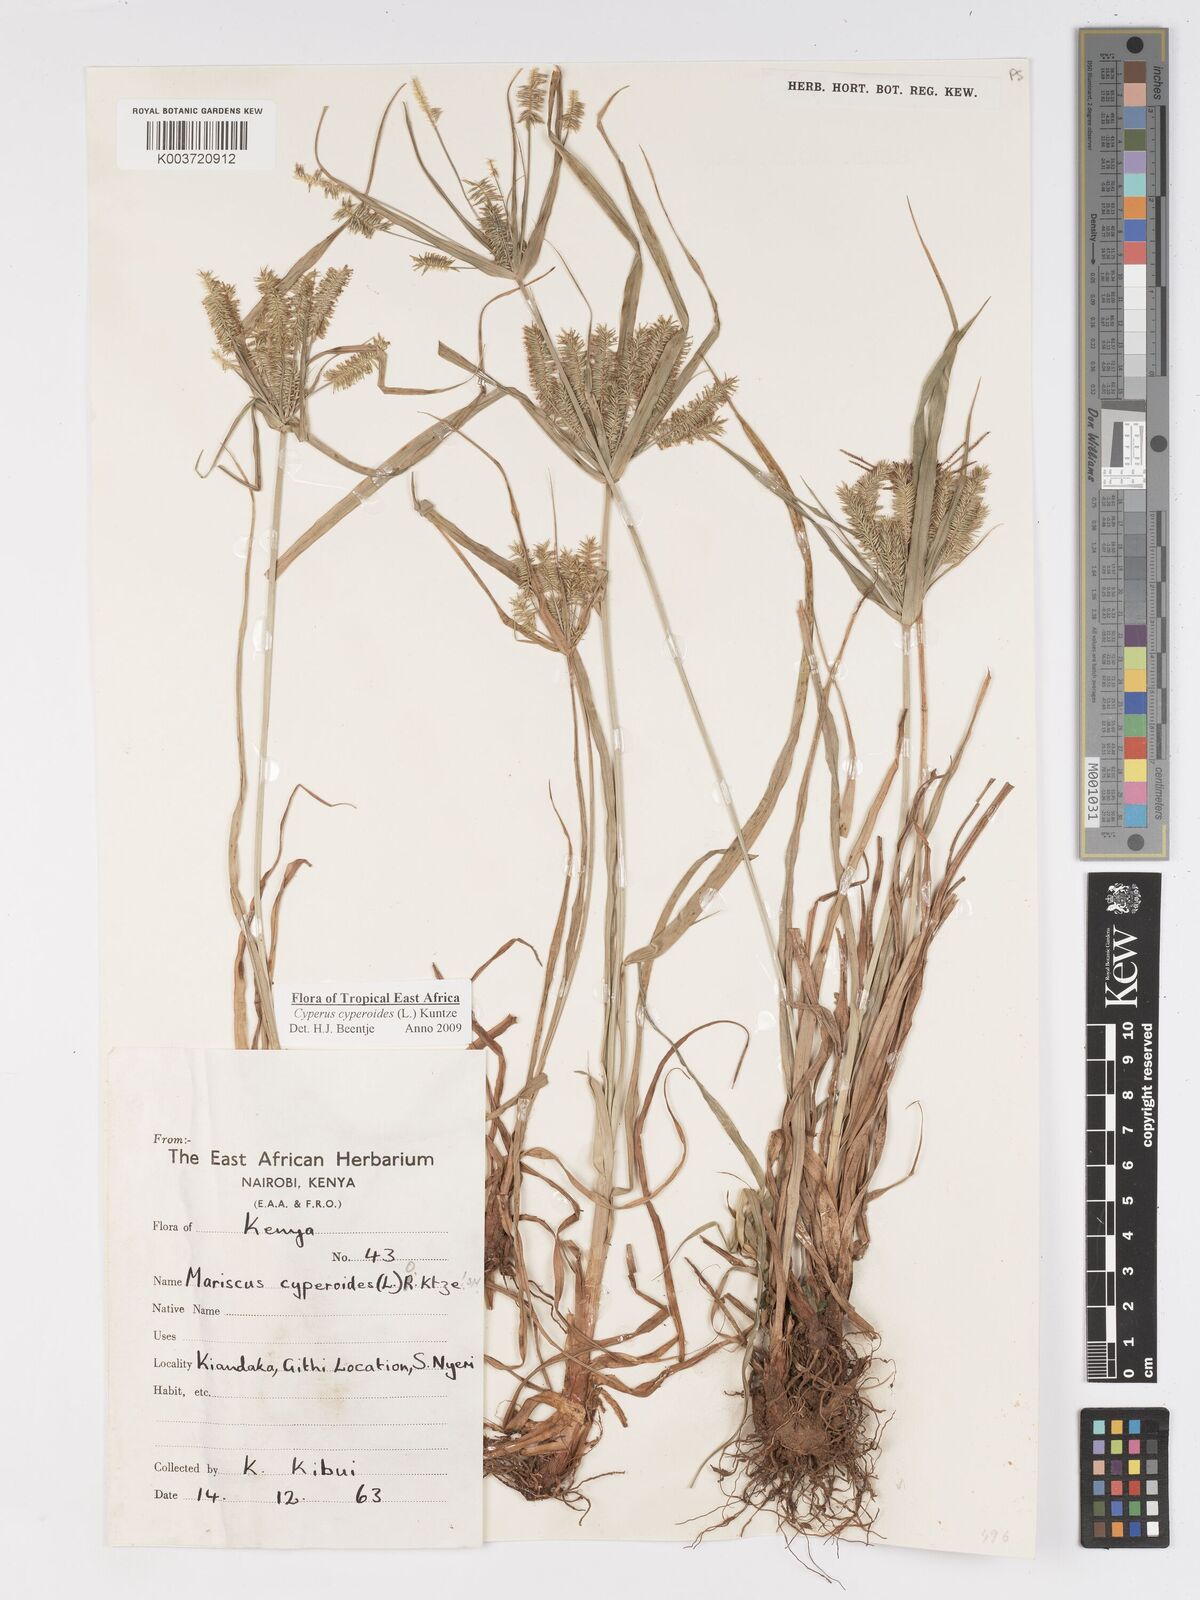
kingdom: Plantae
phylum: Tracheophyta
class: Liliopsida
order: Poales
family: Cyperaceae
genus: Cyperus
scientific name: Cyperus cyperoides
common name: Pacific island flat sedge
